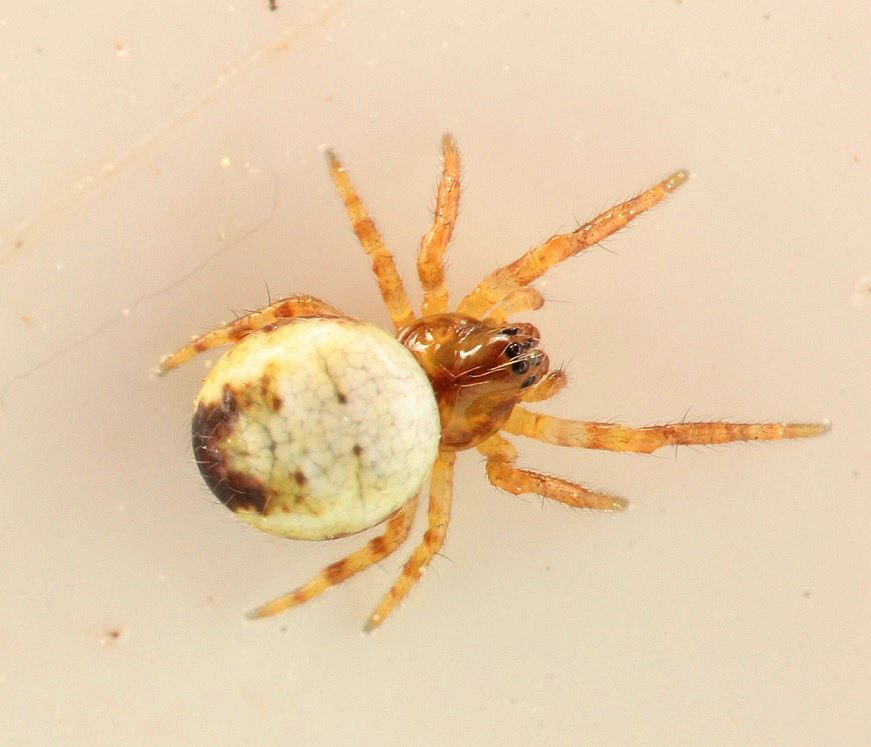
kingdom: Animalia
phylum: Arthropoda
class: Arachnida
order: Araneae
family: Araneidae
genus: Araneus
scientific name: Araneus quadratus
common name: Kvadratedderkop
